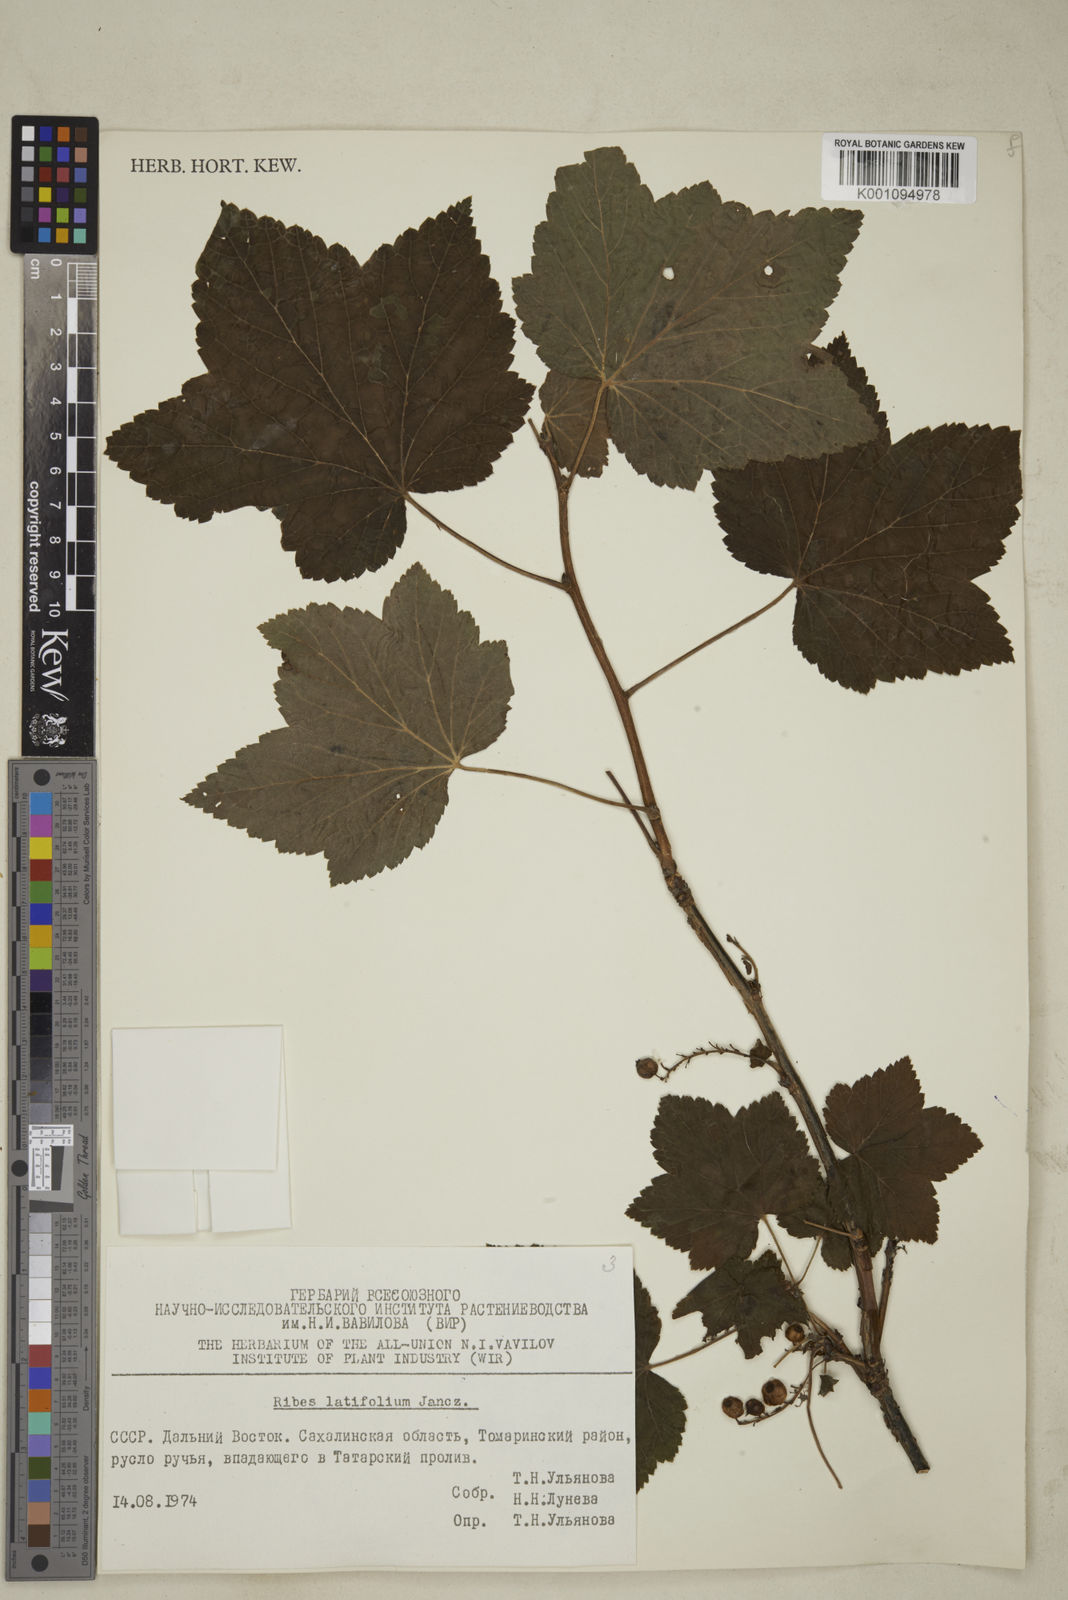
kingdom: Plantae
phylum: Tracheophyta
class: Magnoliopsida
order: Saxifragales
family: Grossulariaceae
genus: Ribes
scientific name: Ribes latifolium
